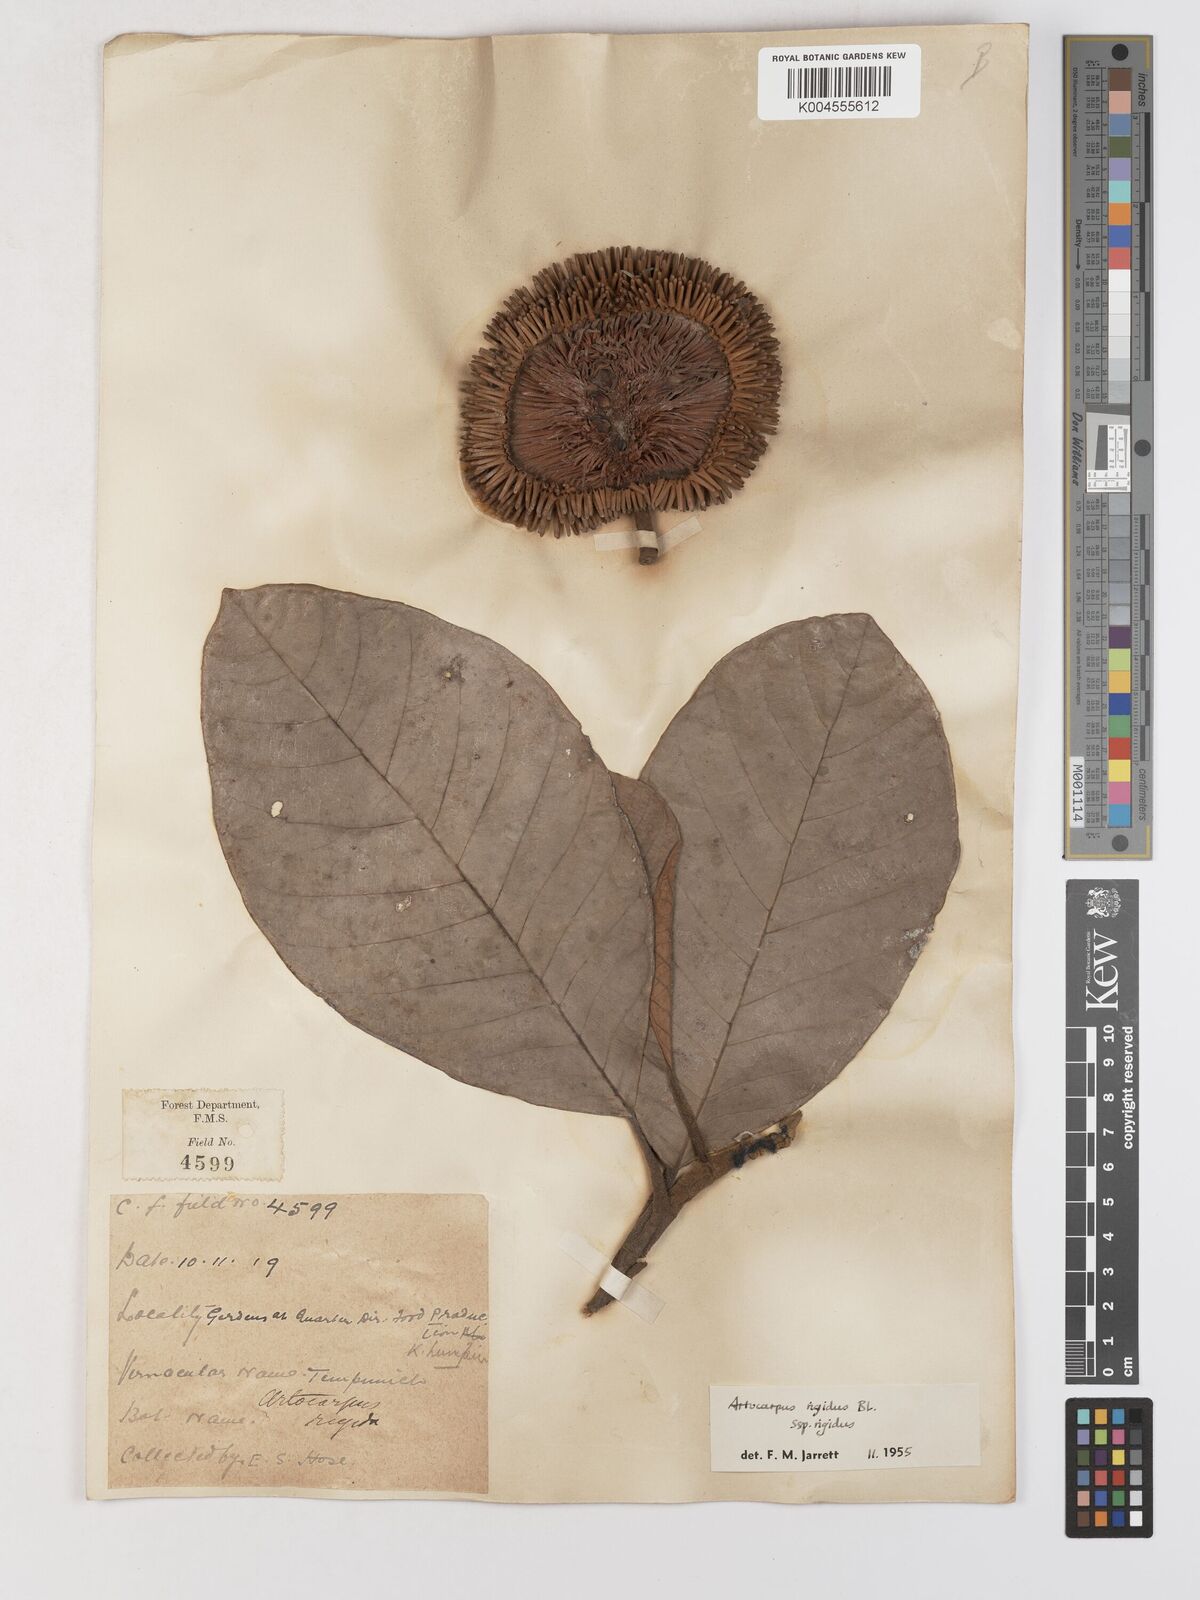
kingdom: Plantae
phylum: Tracheophyta
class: Magnoliopsida
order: Rosales
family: Moraceae
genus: Artocarpus
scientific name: Artocarpus
